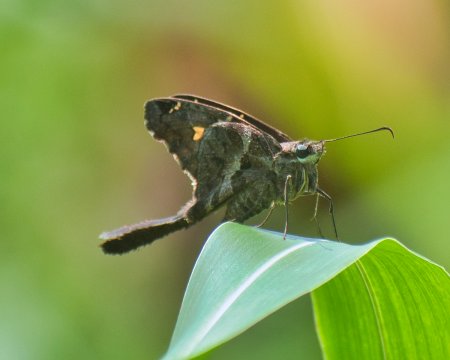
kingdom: Animalia
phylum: Arthropoda
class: Insecta
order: Lepidoptera
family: Hesperiidae
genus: Chioides
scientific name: Chioides catillus
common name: Blurry-striped Longtail
